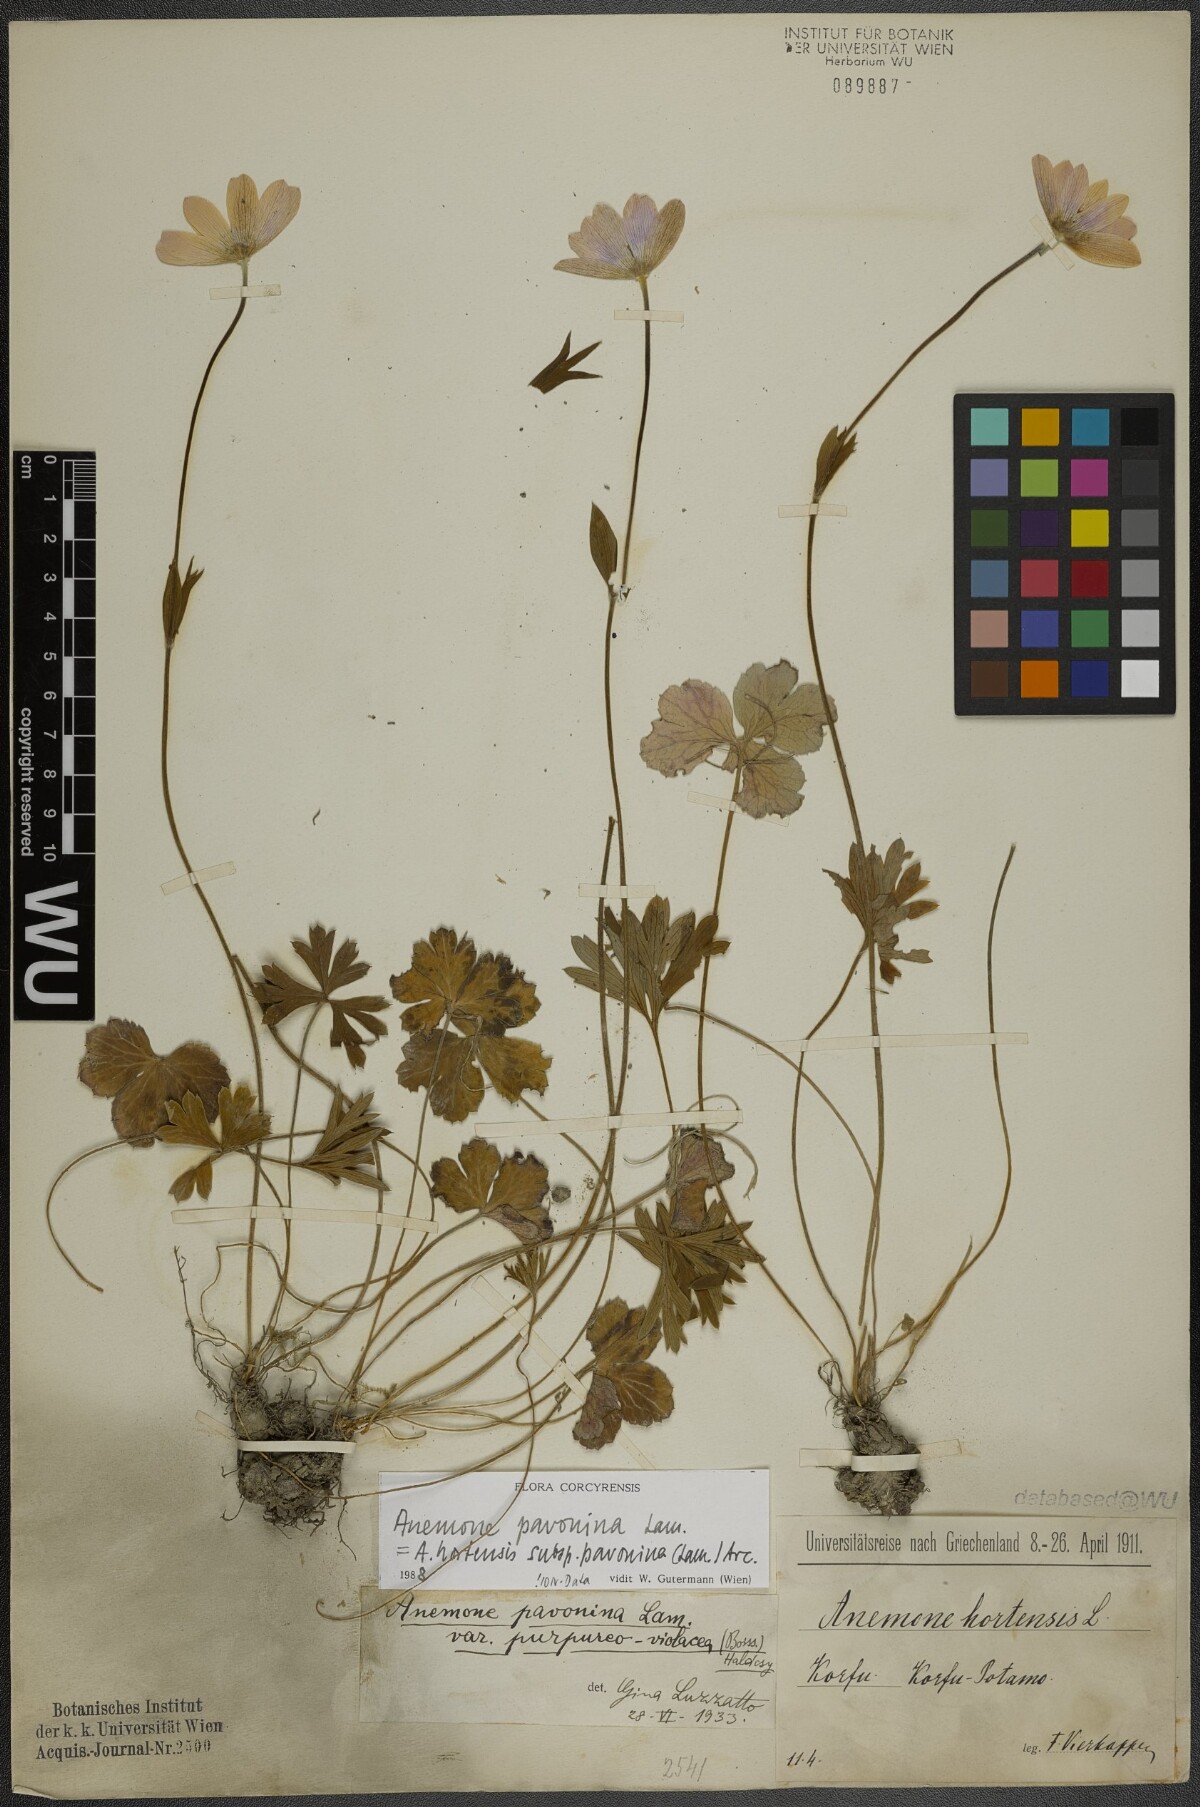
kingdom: Plantae
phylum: Tracheophyta
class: Magnoliopsida
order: Ranunculales
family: Ranunculaceae
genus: Anemone
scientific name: Anemone pavonina
